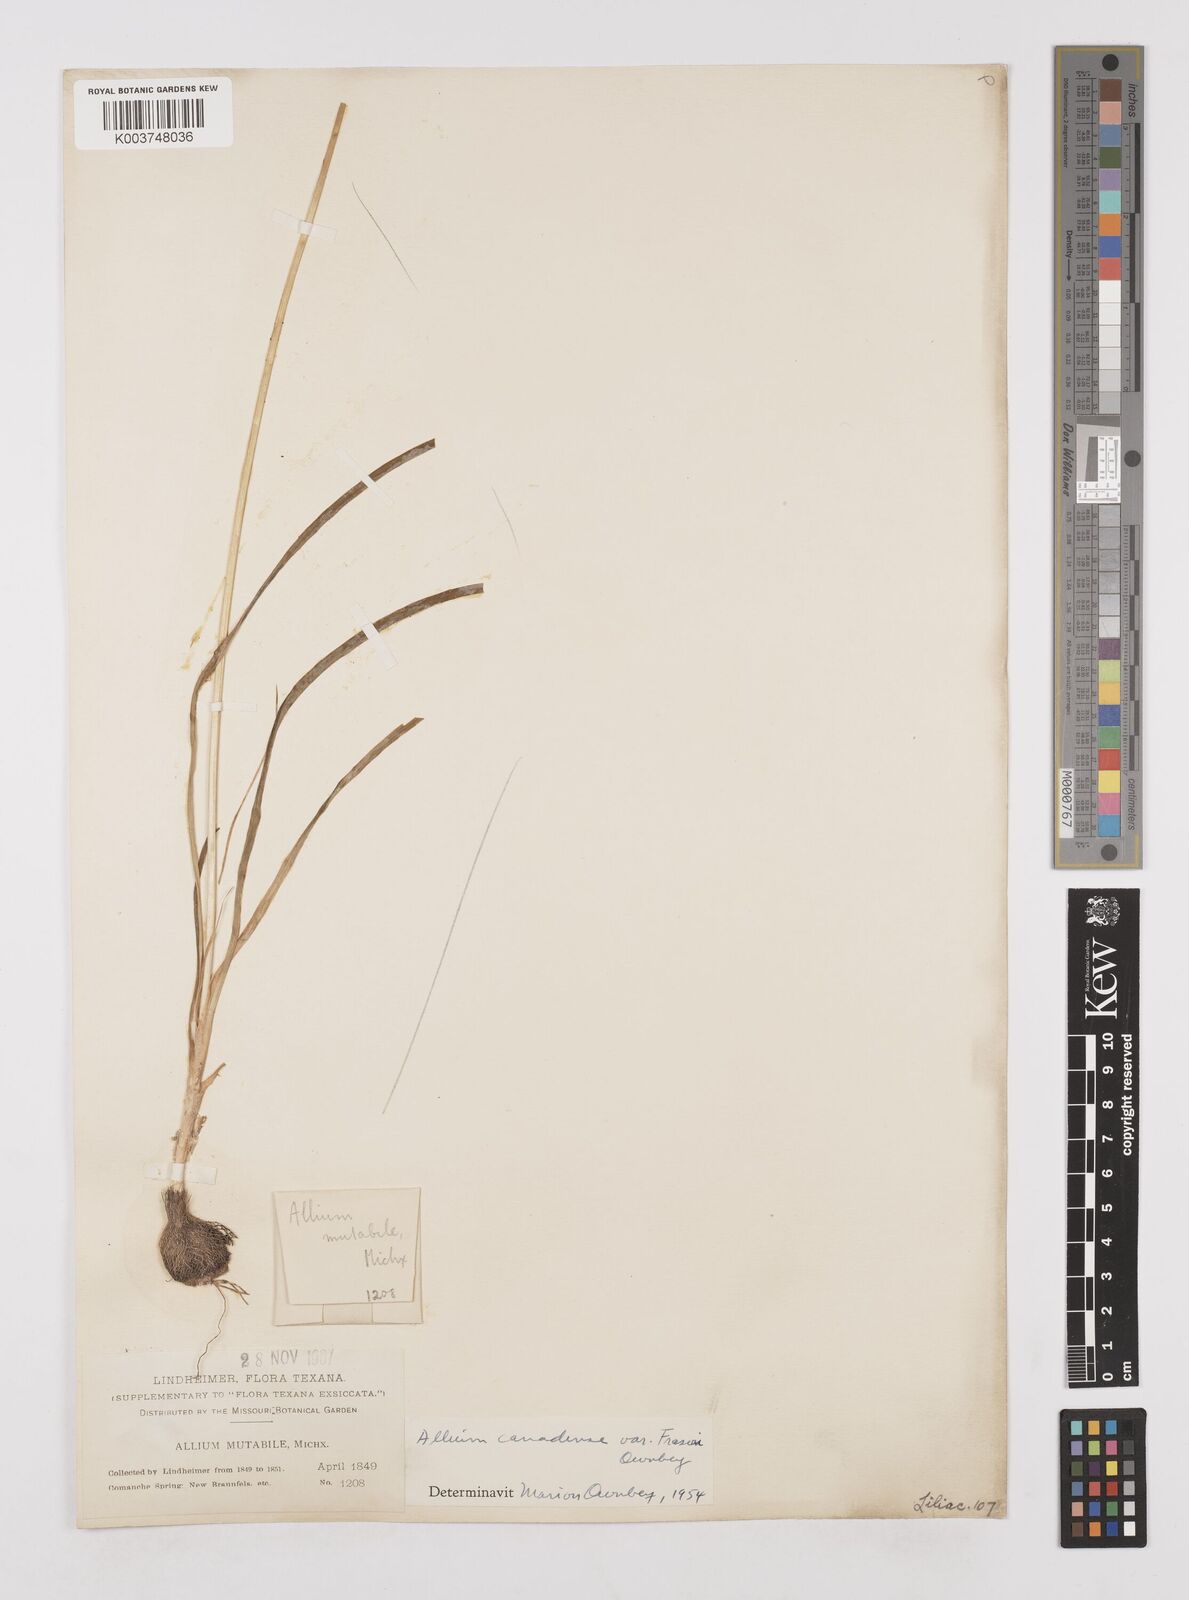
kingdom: Plantae
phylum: Tracheophyta
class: Liliopsida
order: Asparagales
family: Amaryllidaceae
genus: Allium
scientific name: Allium fraseri
